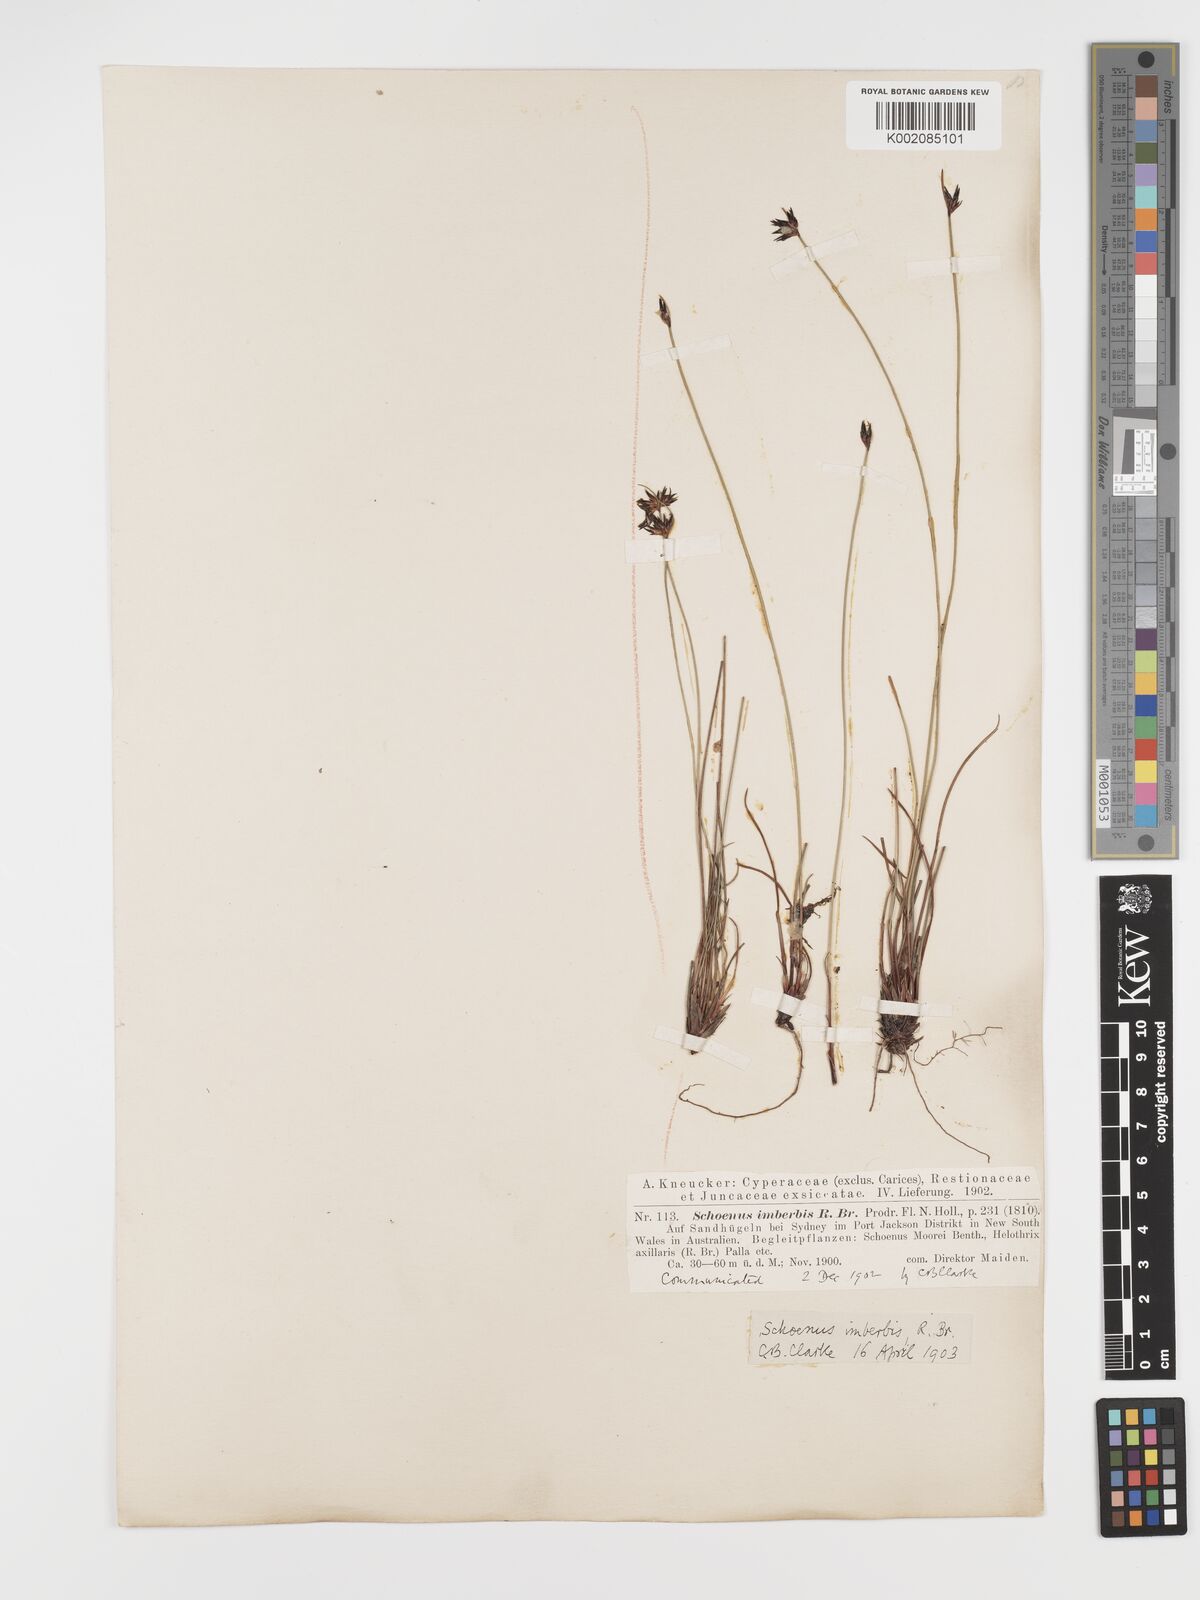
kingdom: Plantae
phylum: Tracheophyta
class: Liliopsida
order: Poales
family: Cyperaceae
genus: Schoenus
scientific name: Schoenus imberbis
